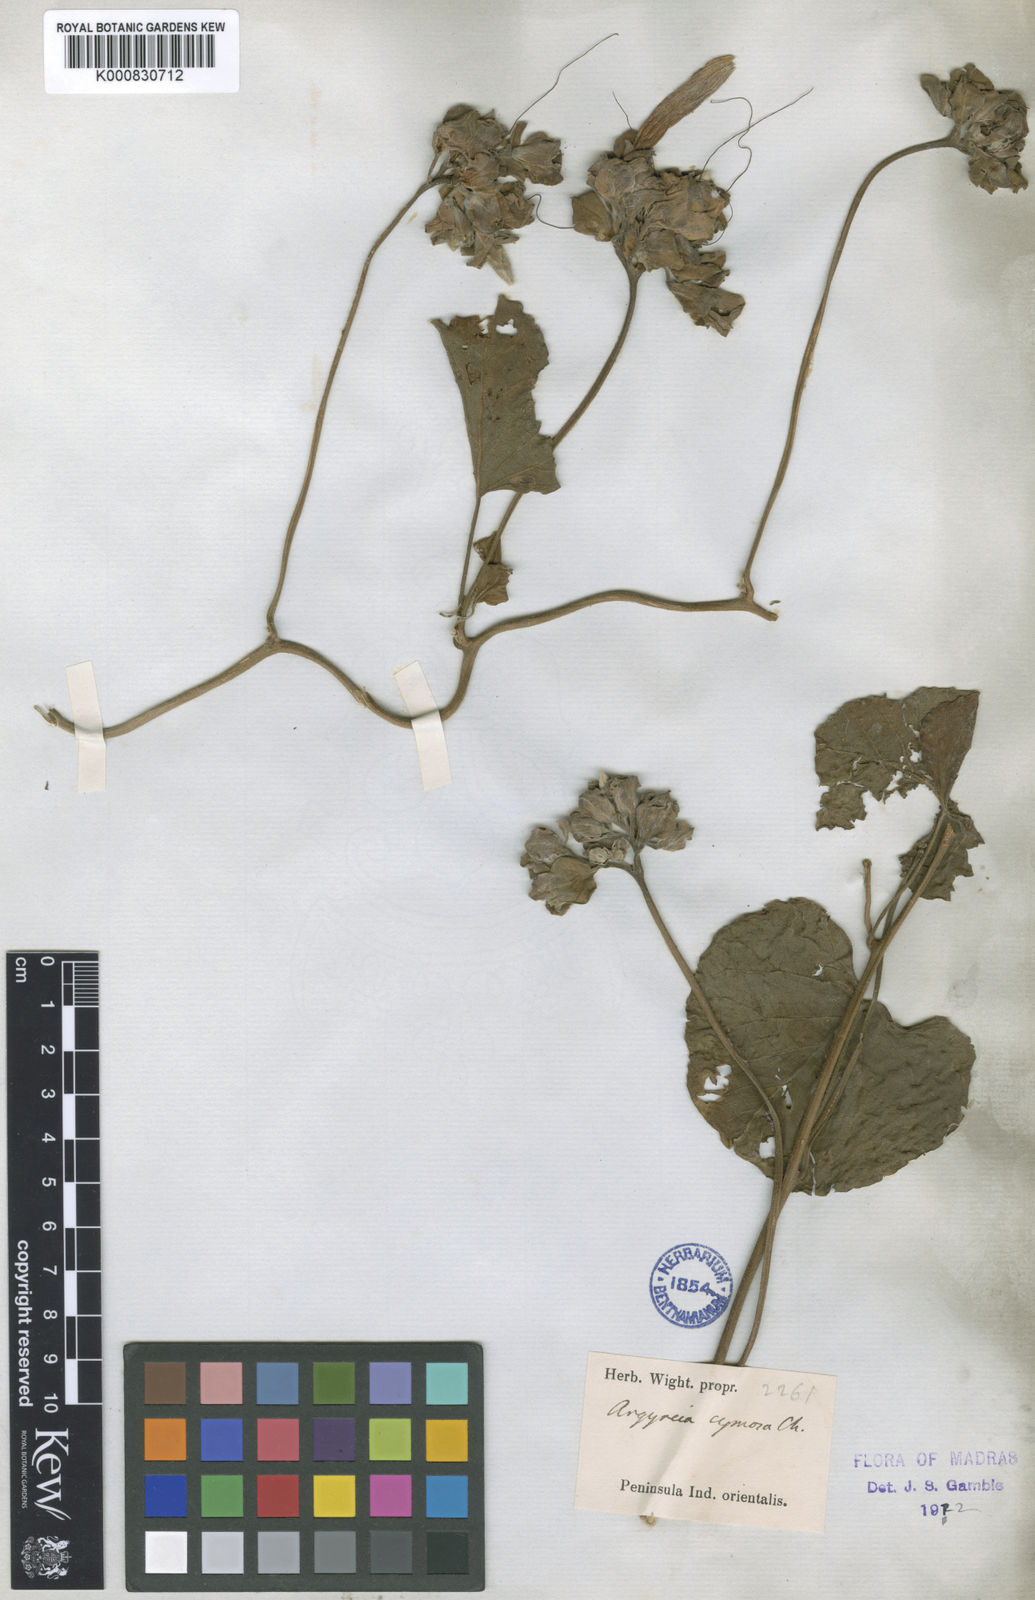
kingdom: Plantae
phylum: Tracheophyta
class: Magnoliopsida
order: Solanales
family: Convolvulaceae
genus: Argyreia
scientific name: Argyreia
